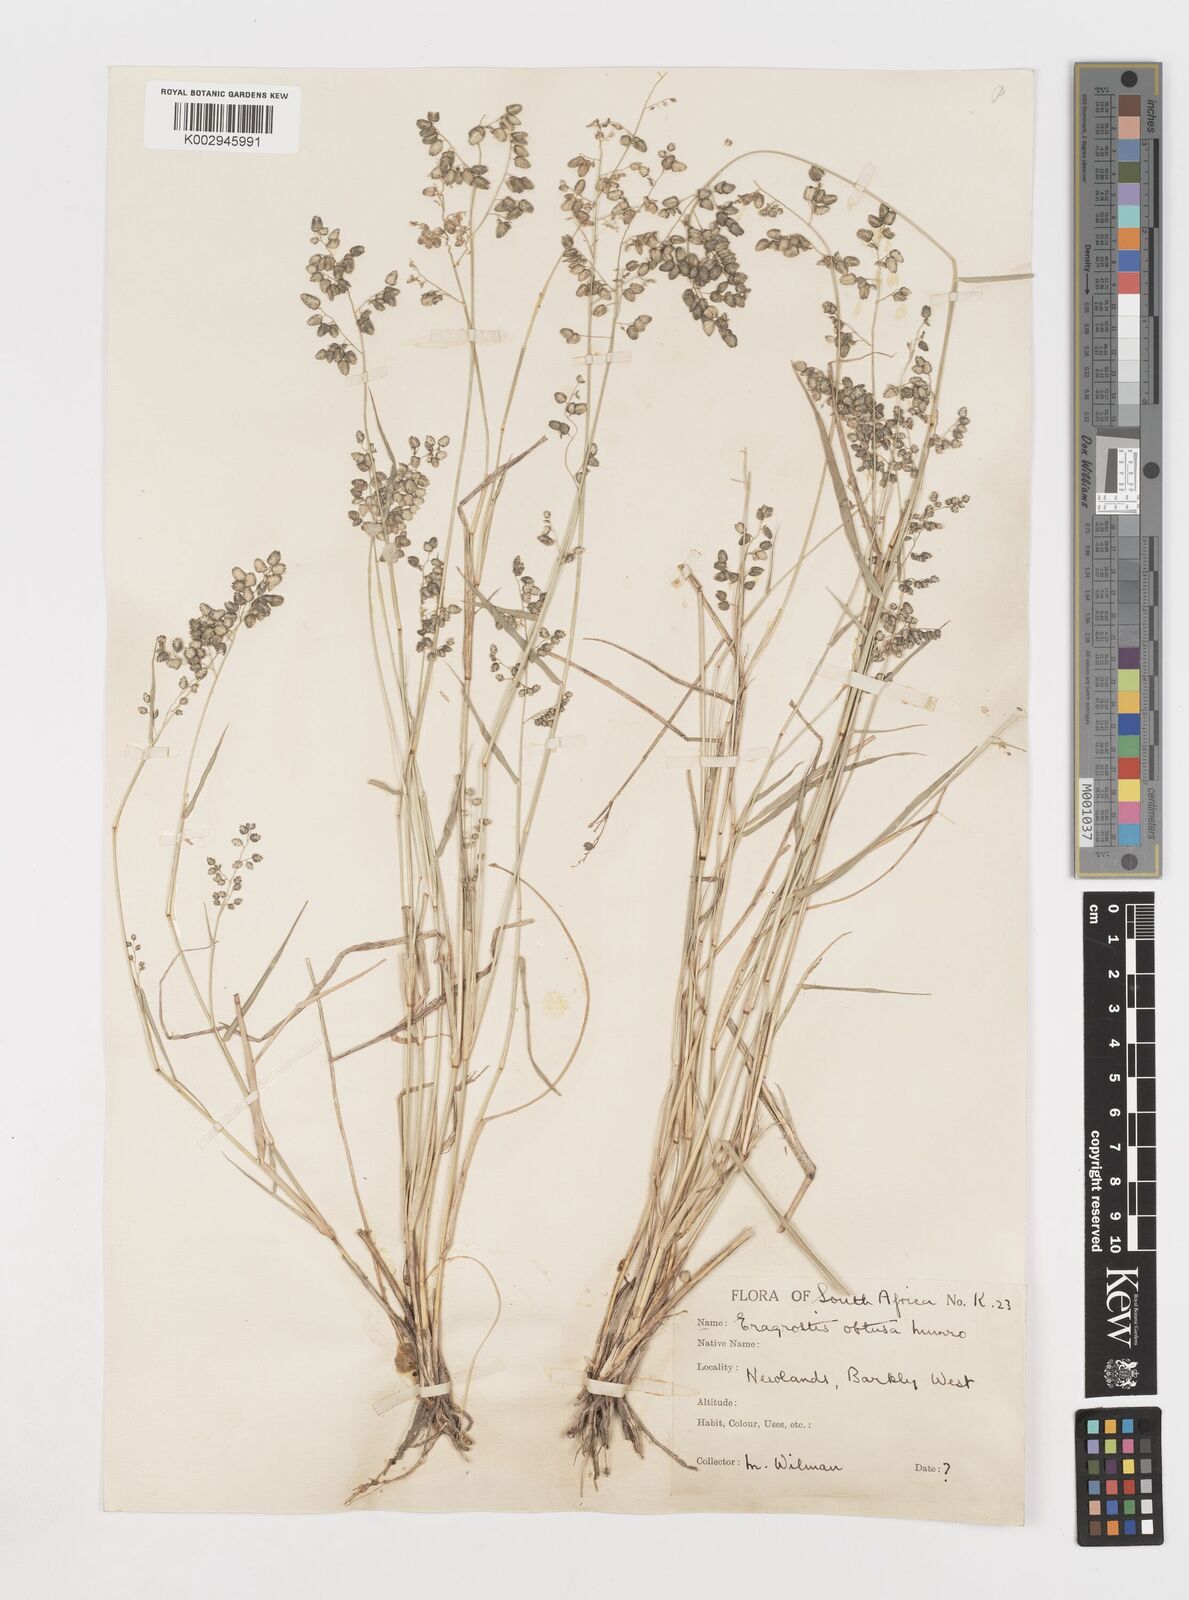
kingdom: Plantae
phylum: Tracheophyta
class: Liliopsida
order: Poales
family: Poaceae
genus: Eragrostis
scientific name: Eragrostis obtusa
